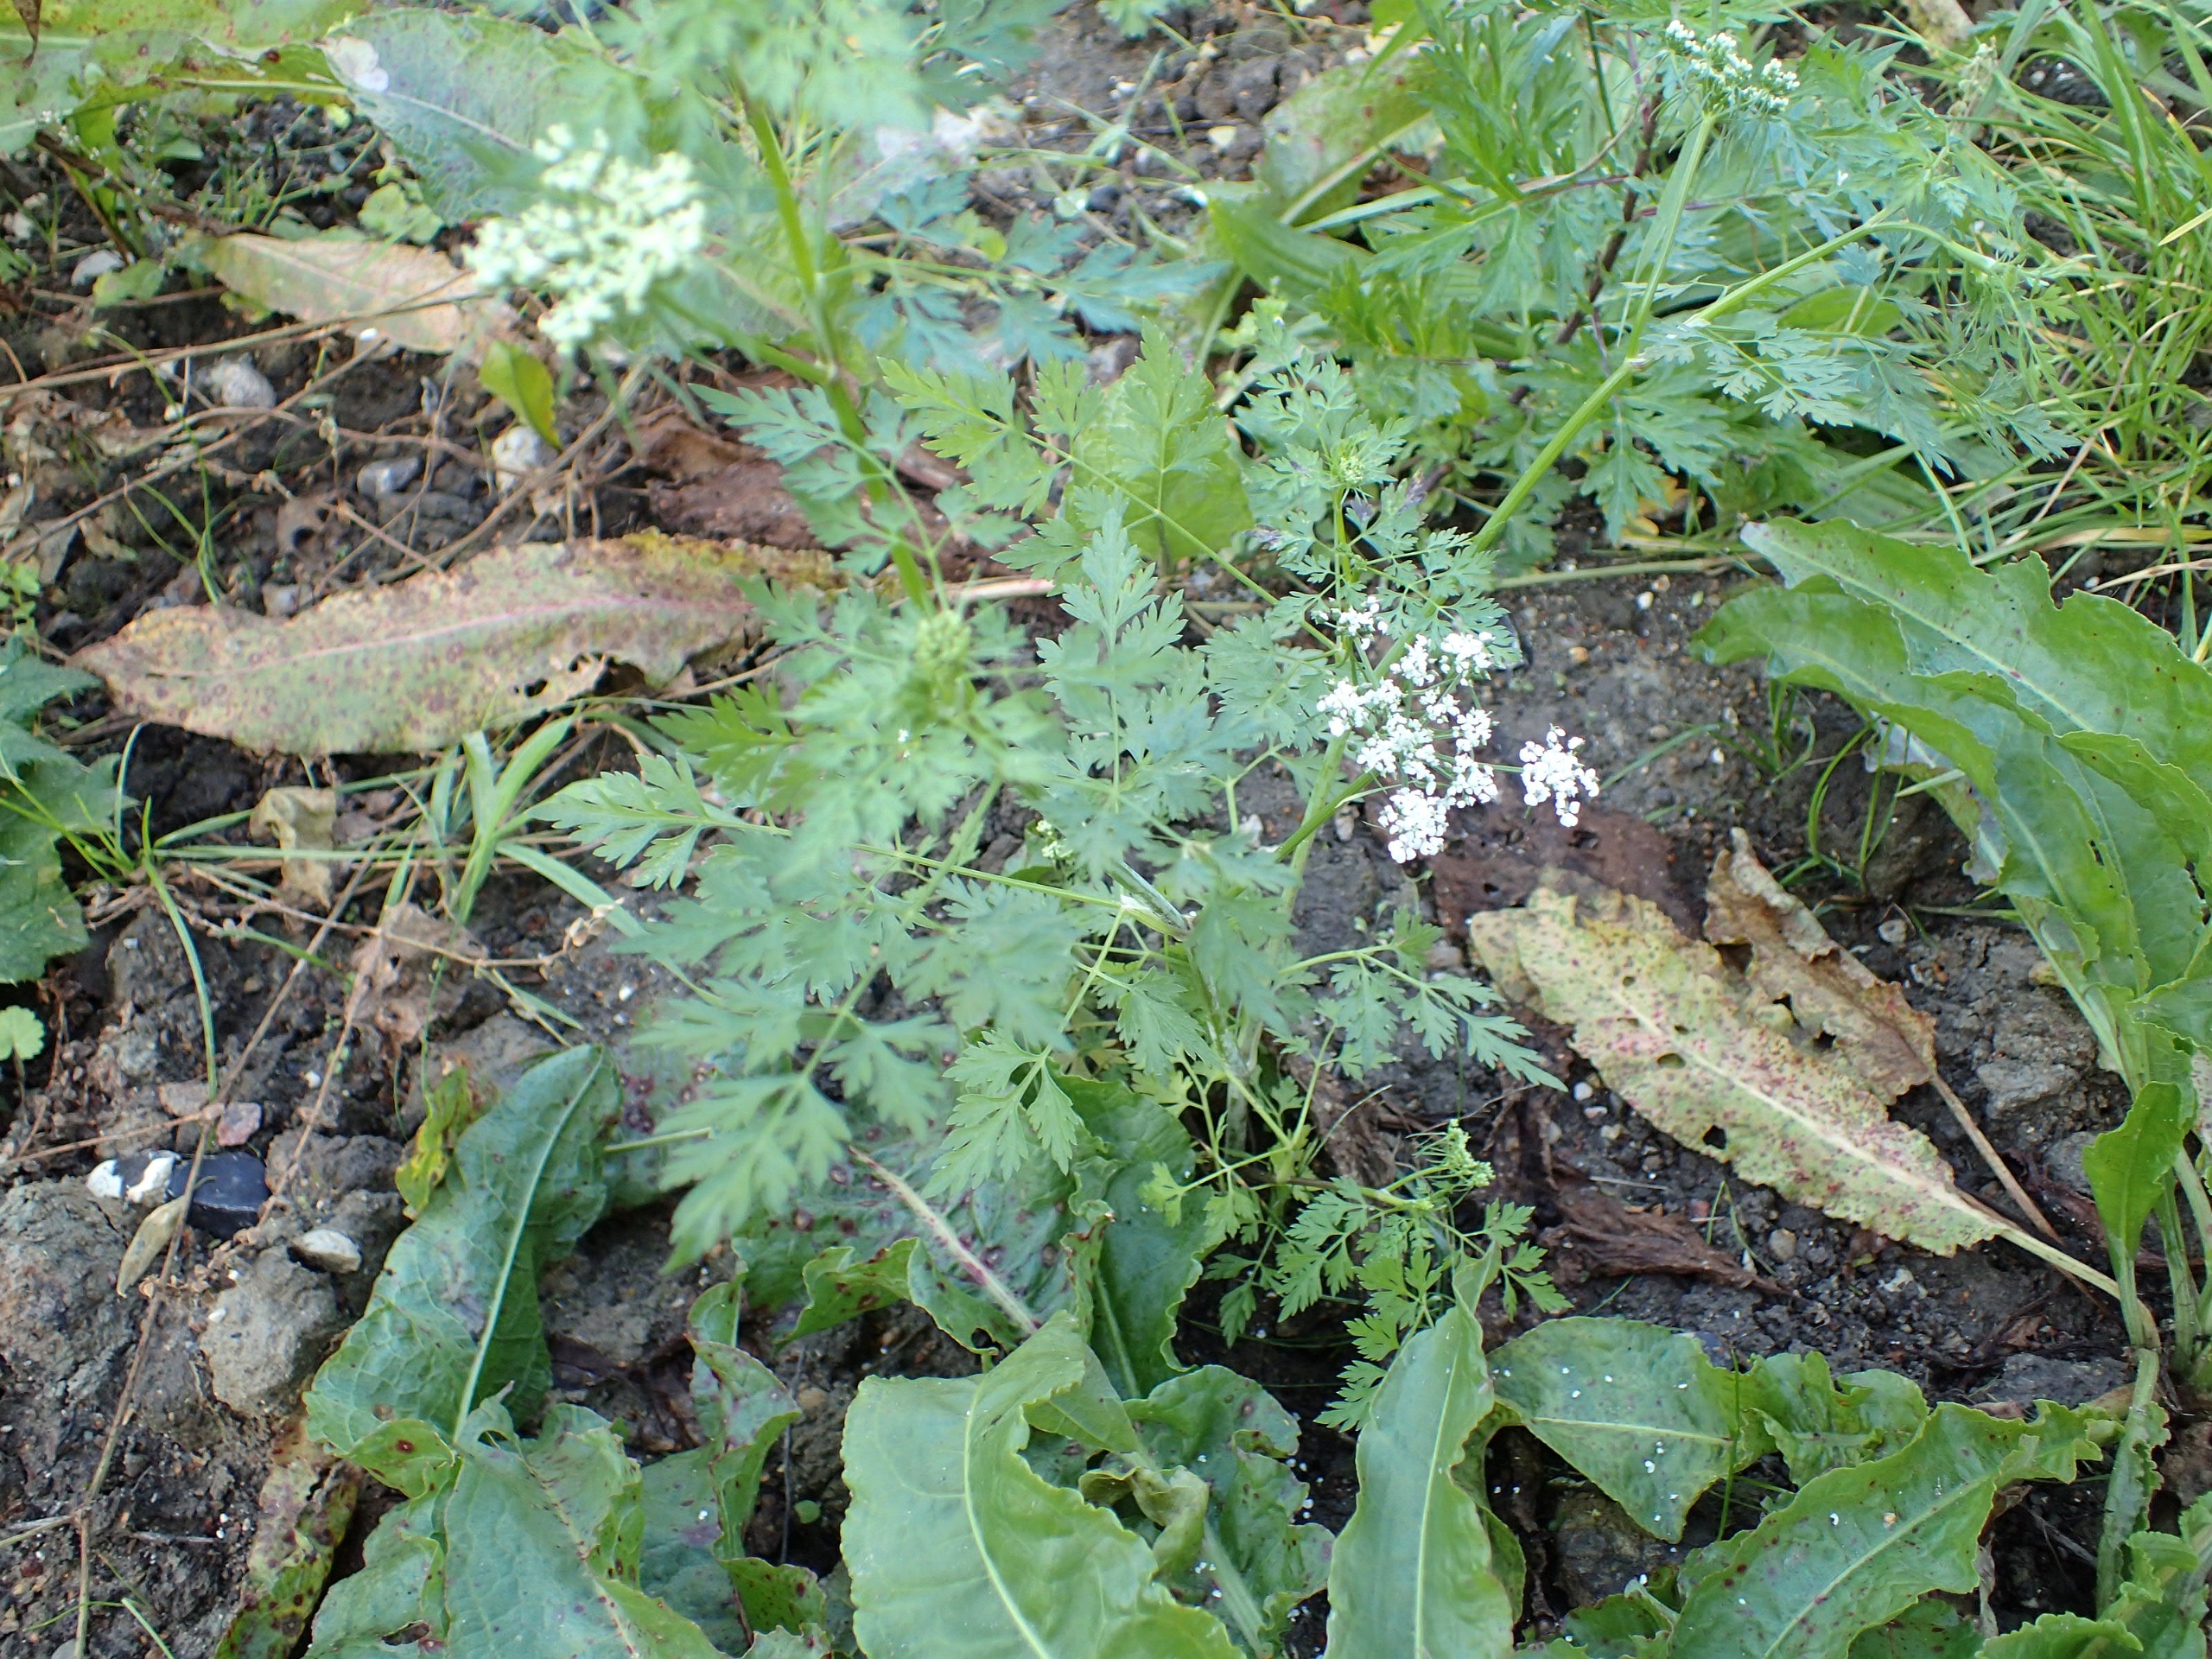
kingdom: Plantae
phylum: Tracheophyta
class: Magnoliopsida
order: Apiales
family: Apiaceae
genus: Aethusa
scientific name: Aethusa cynapium
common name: Almindelig hundepersille
